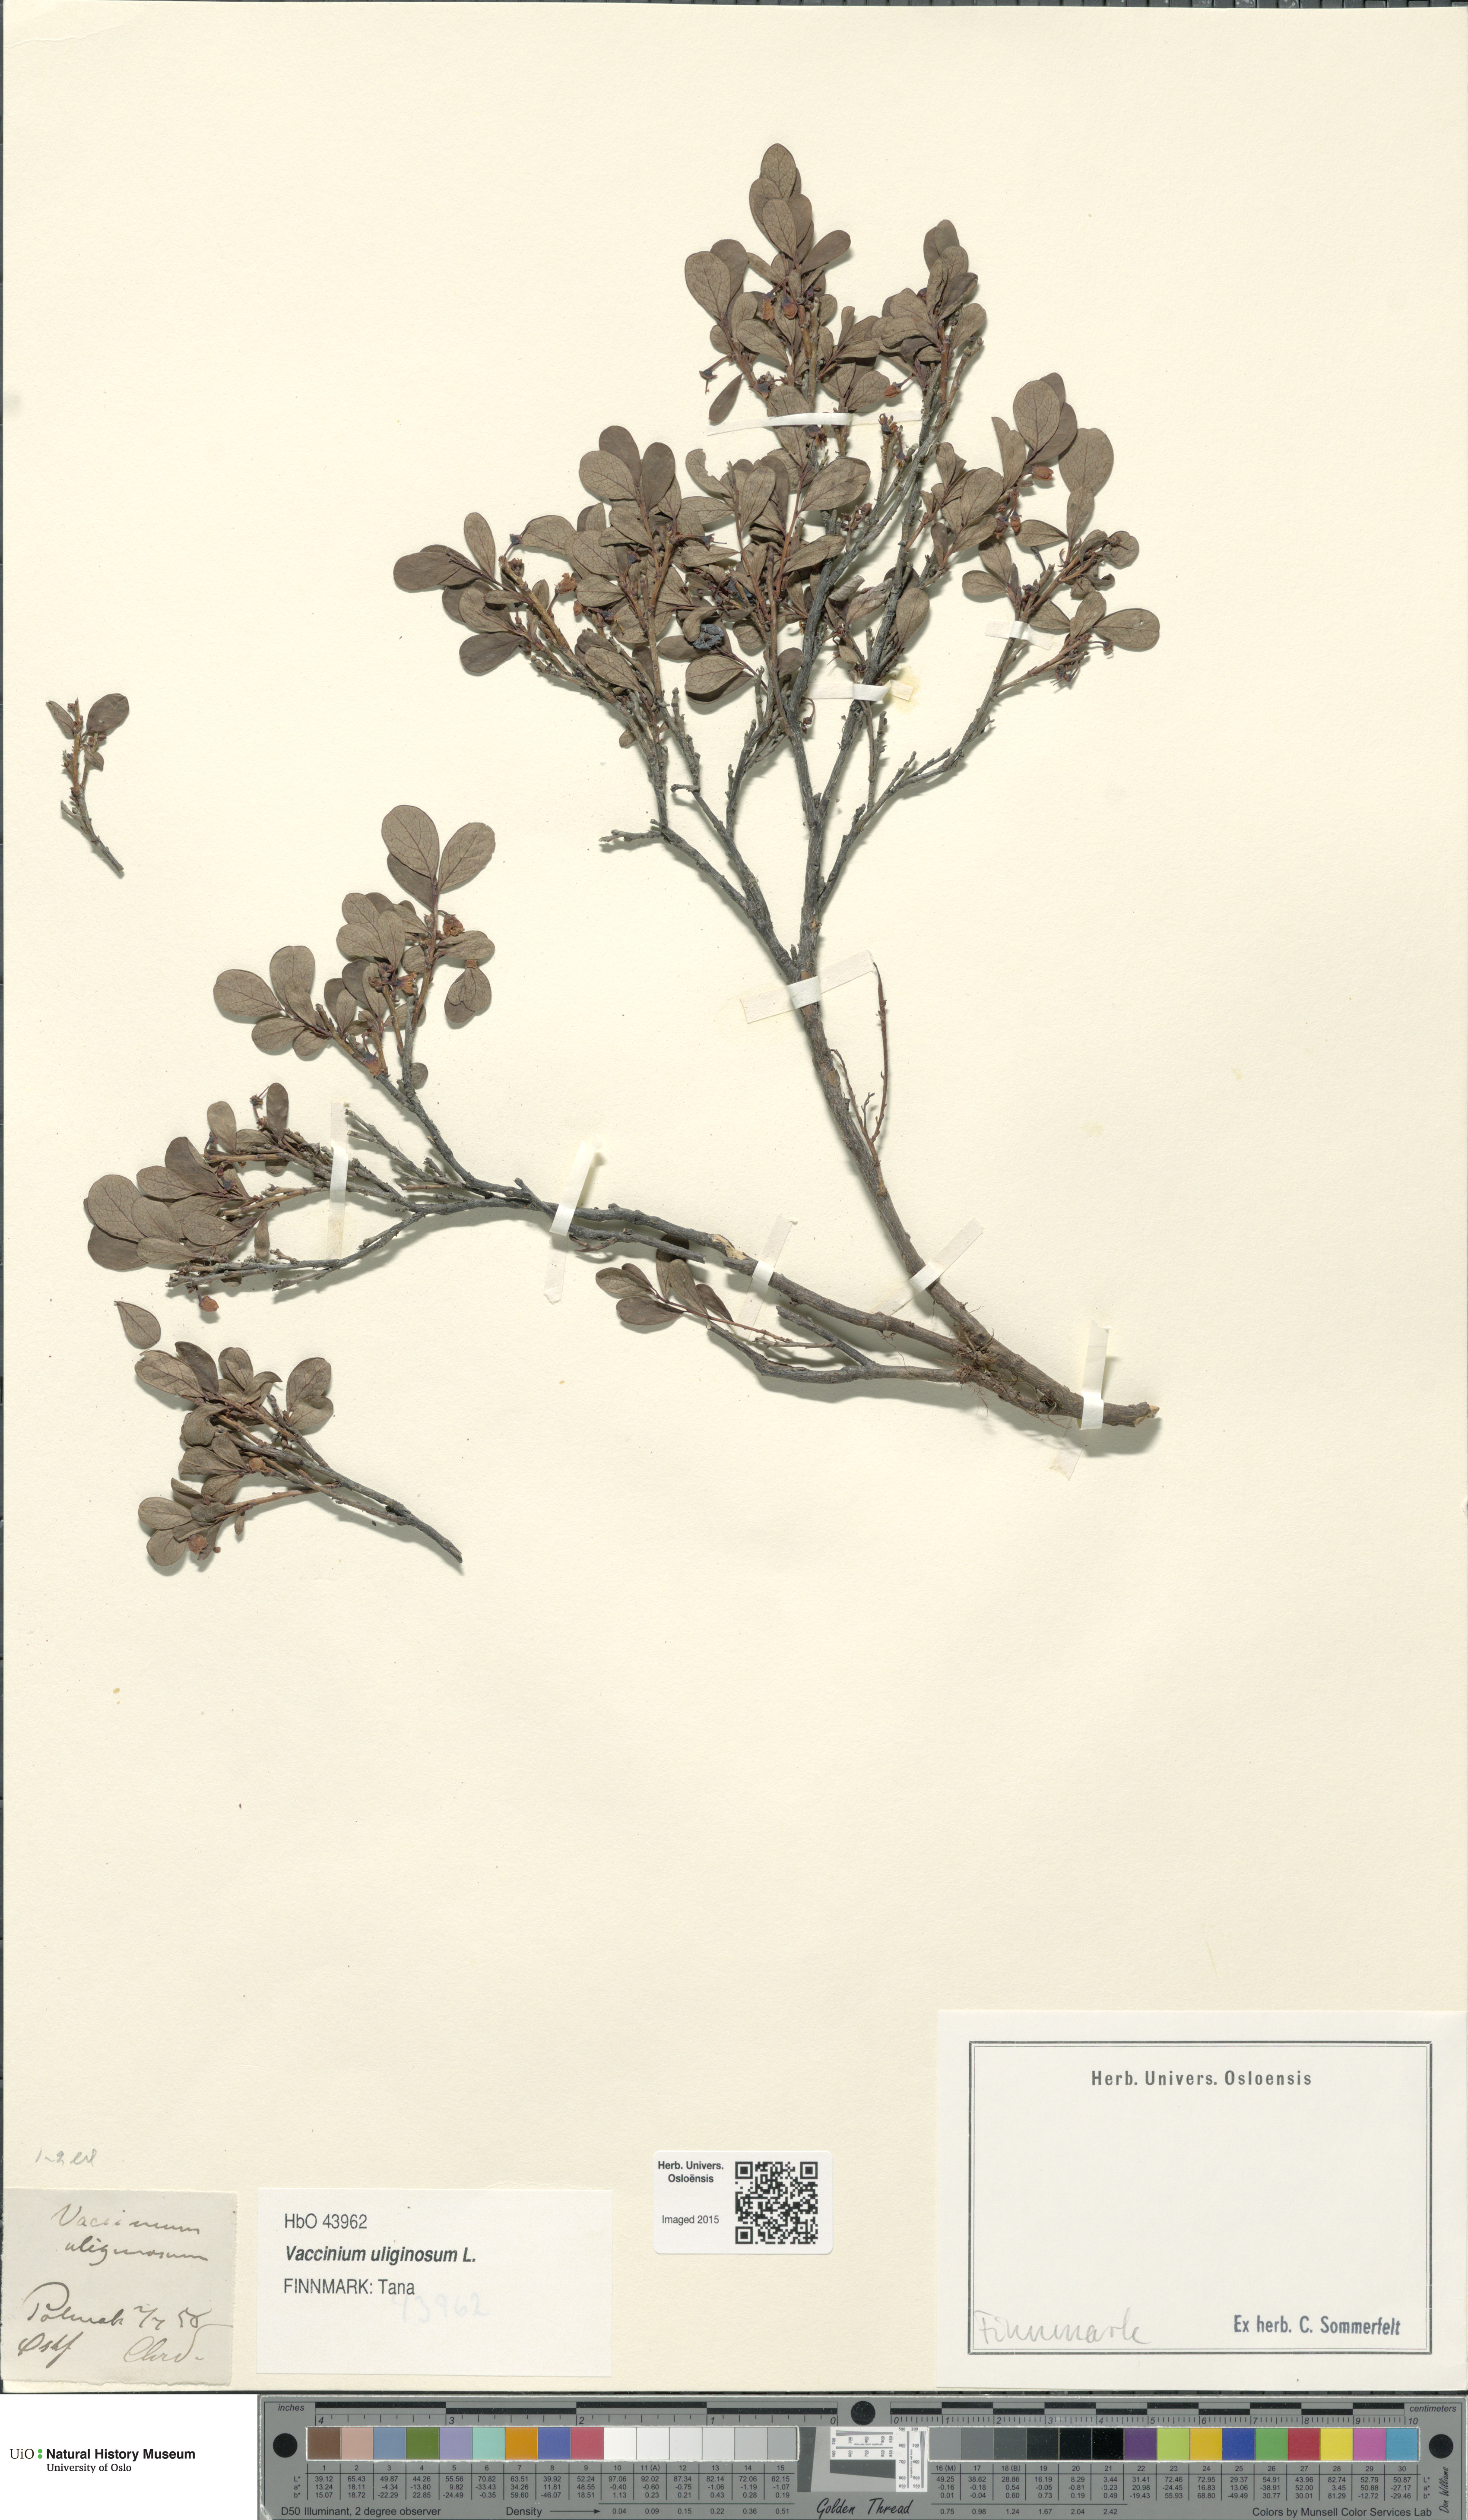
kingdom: Plantae
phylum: Tracheophyta
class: Magnoliopsida
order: Ericales
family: Ericaceae
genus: Vaccinium
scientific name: Vaccinium uliginosum
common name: Bog bilberry
